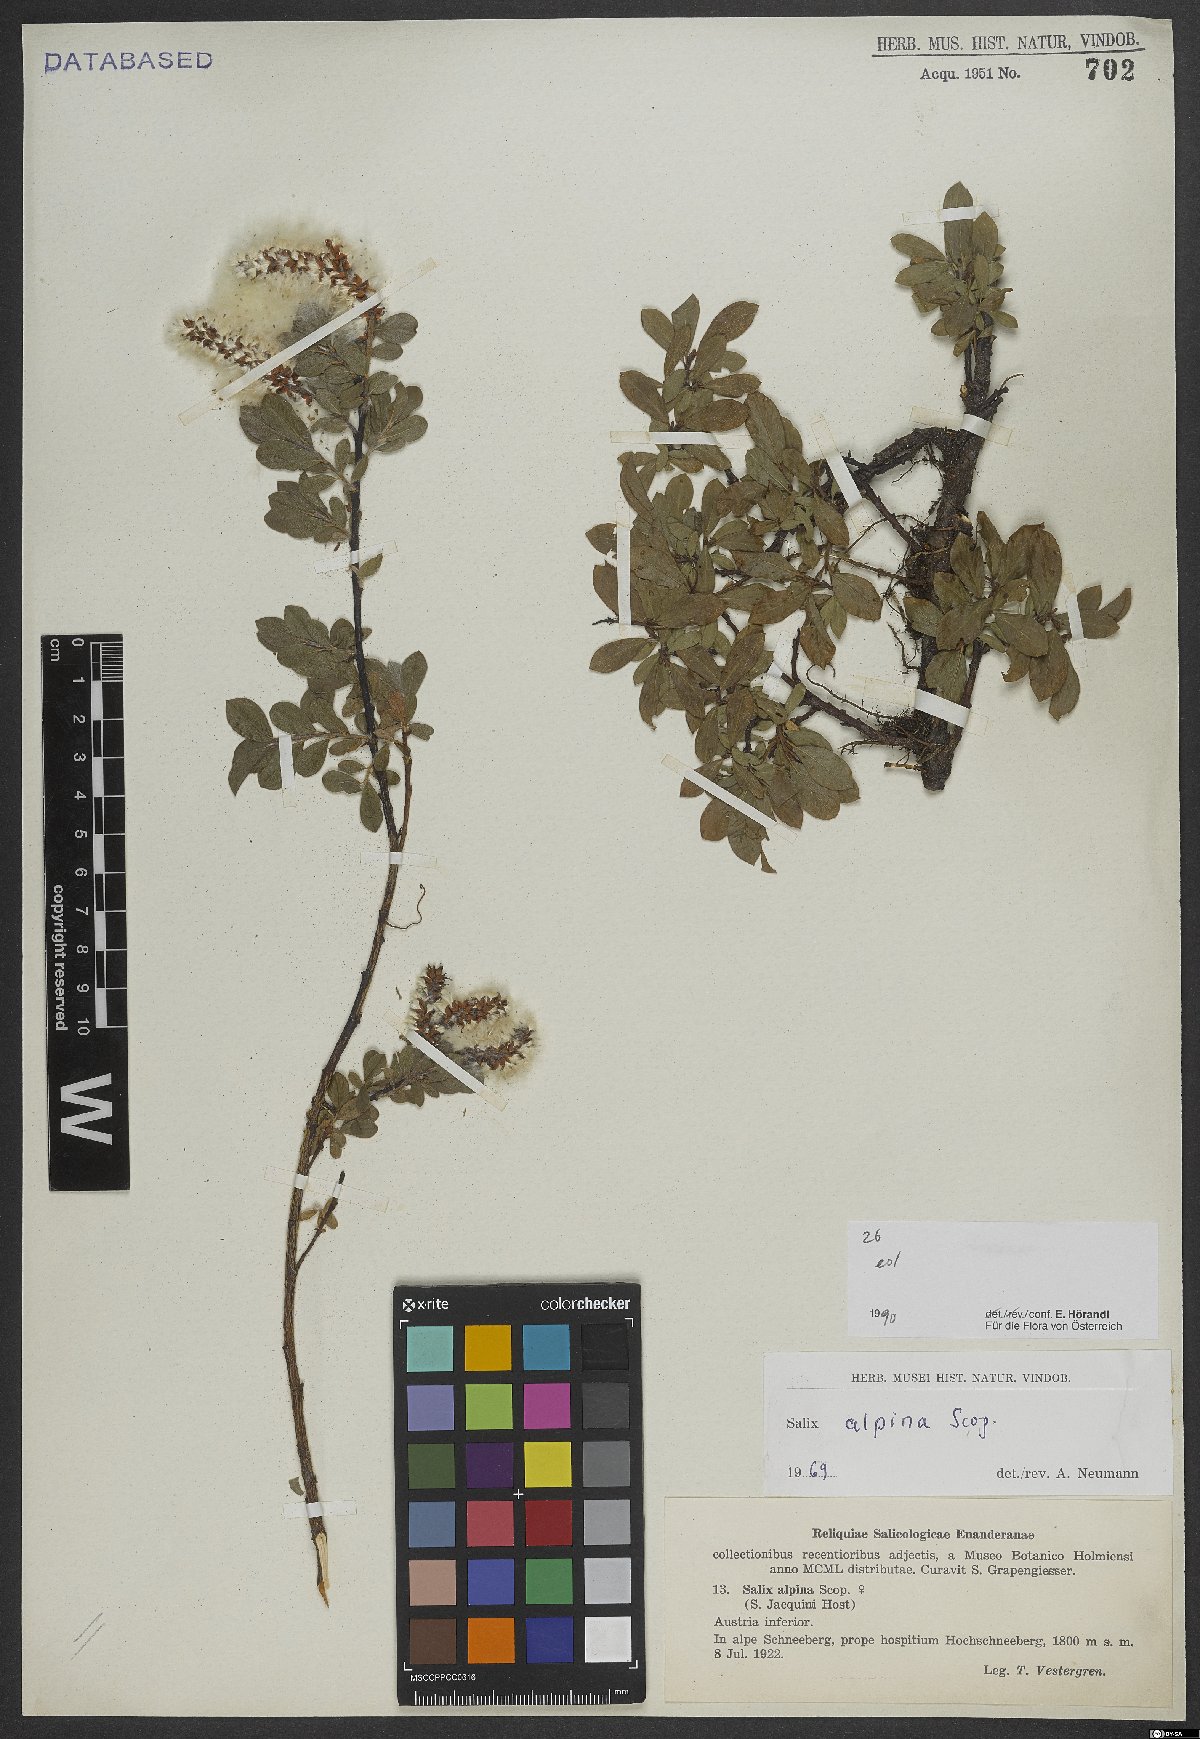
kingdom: Plantae
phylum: Tracheophyta
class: Magnoliopsida
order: Malpighiales
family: Salicaceae
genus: Salix
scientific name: Salix alpina
